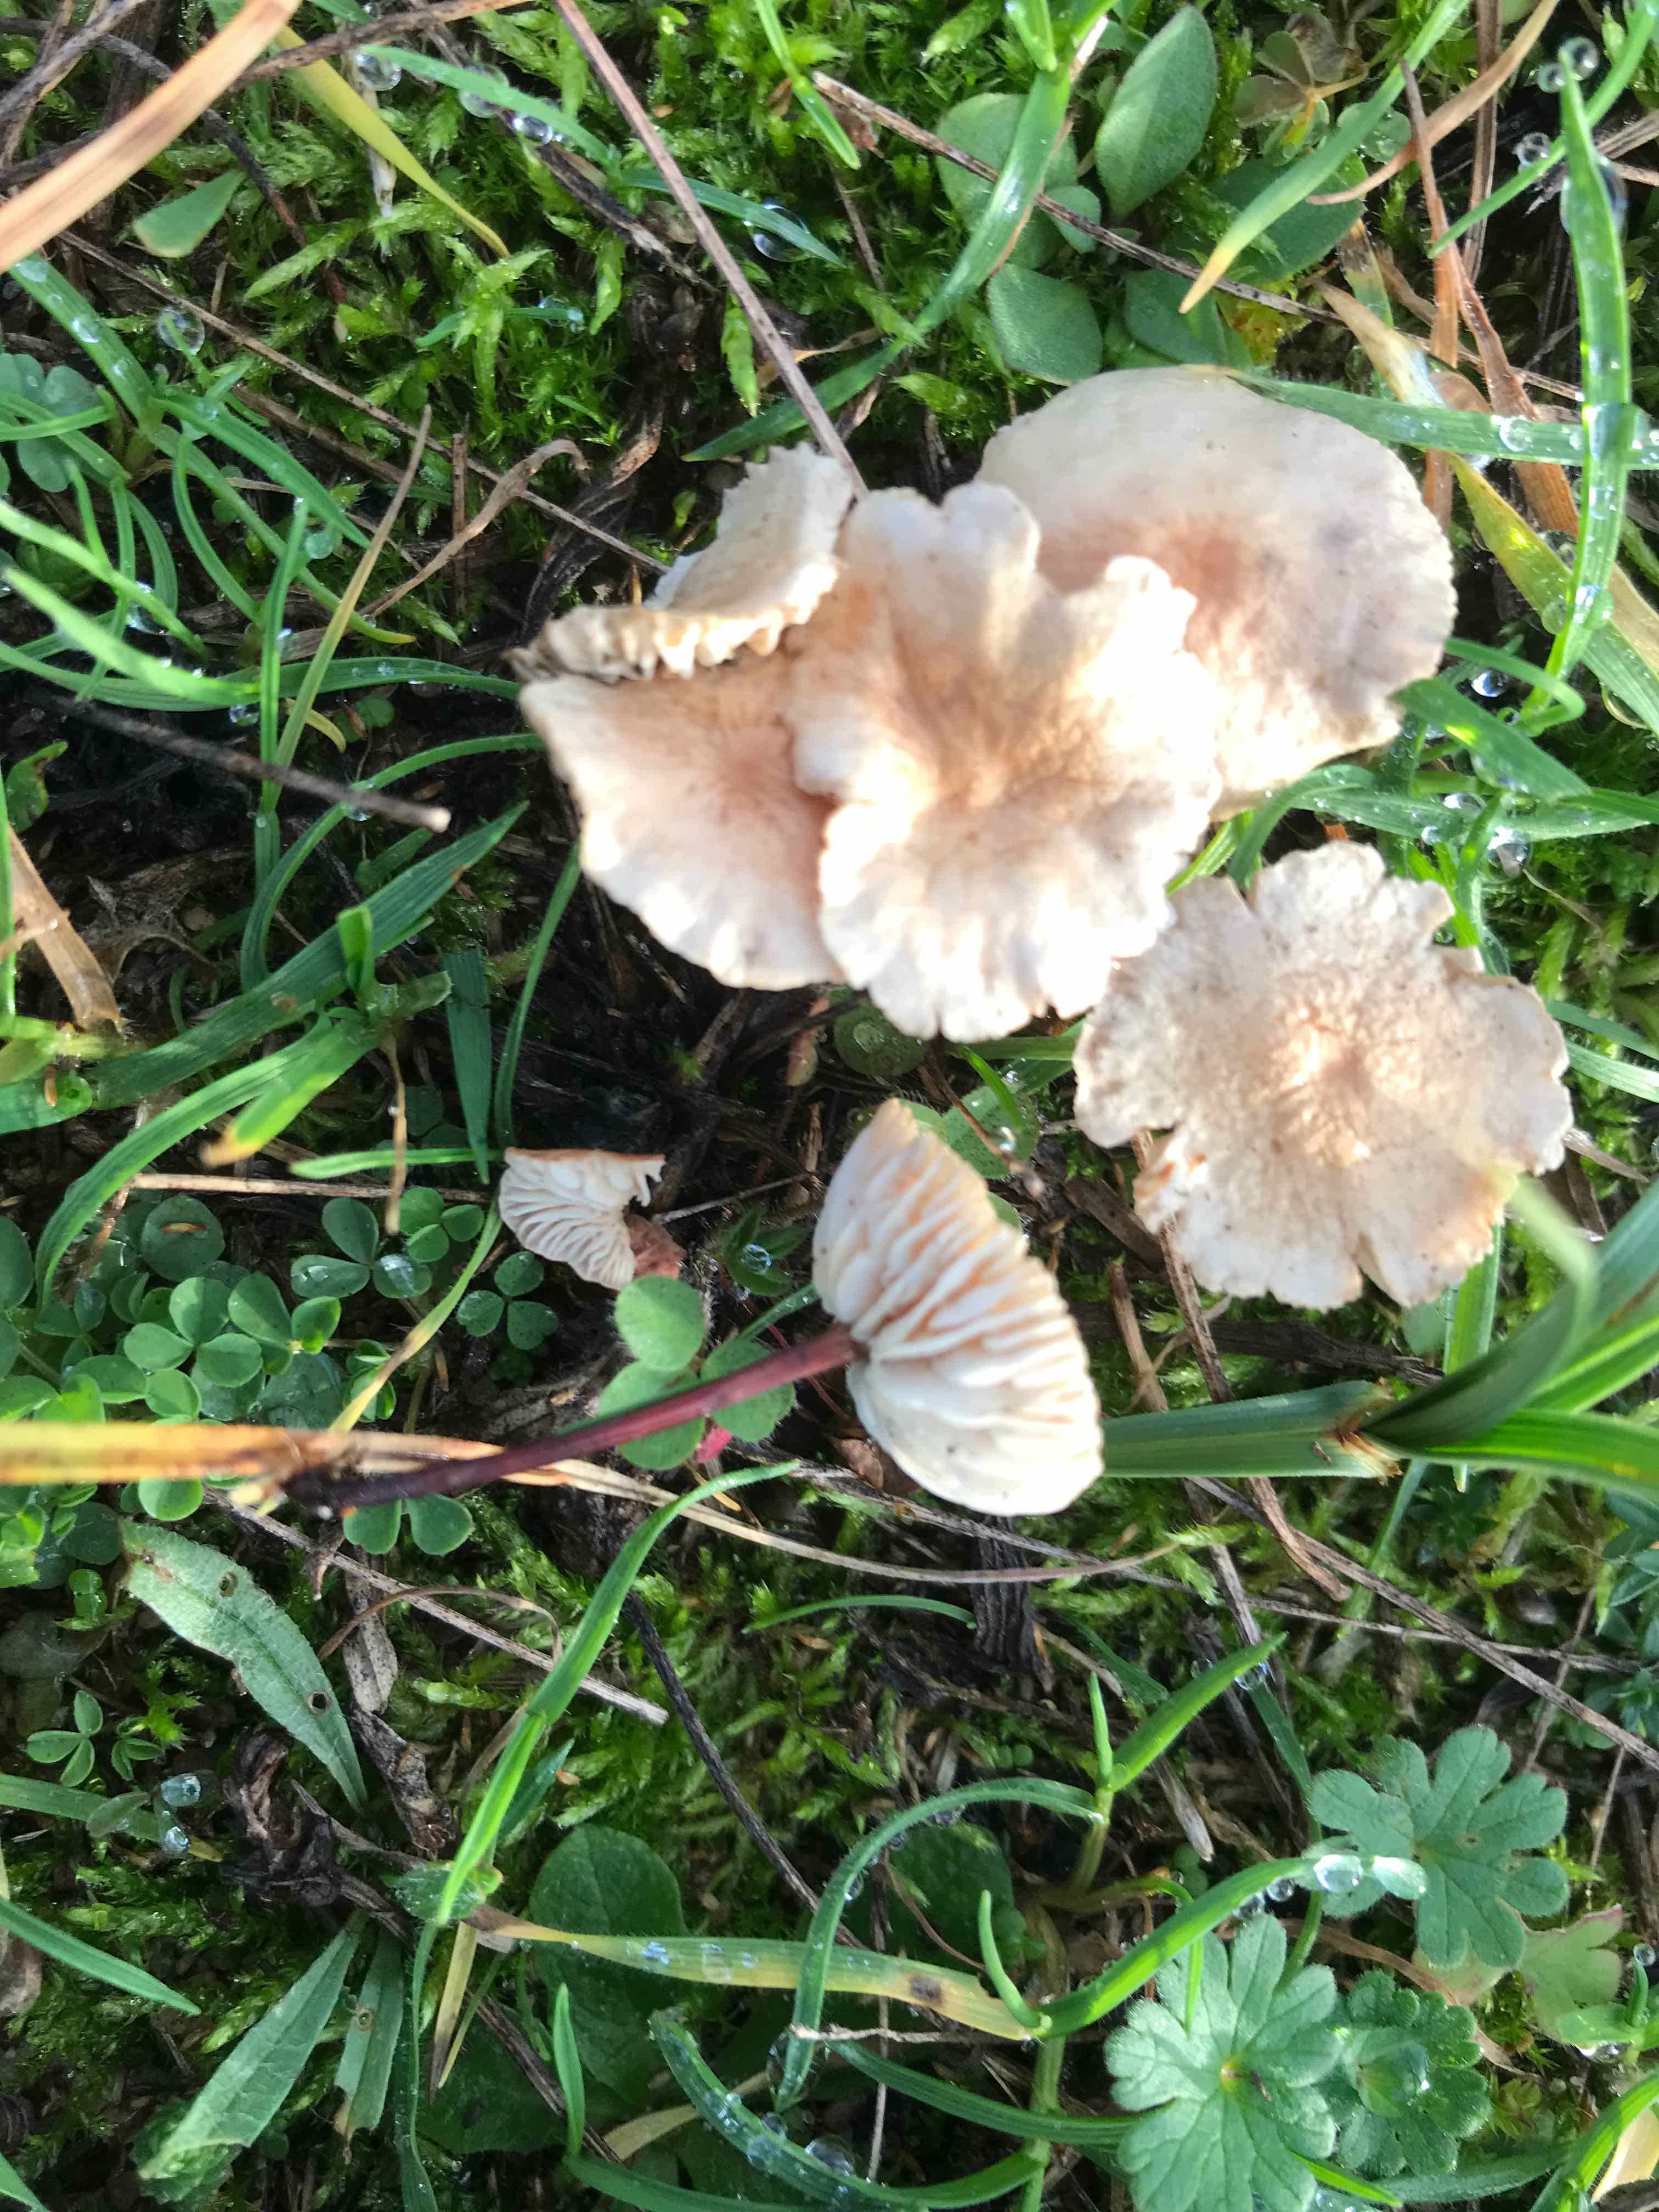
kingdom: Fungi
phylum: Basidiomycota
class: Agaricomycetes
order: Agaricales
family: Omphalotaceae
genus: Mycetinis
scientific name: Mycetinis scorodonius
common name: lille løghat
